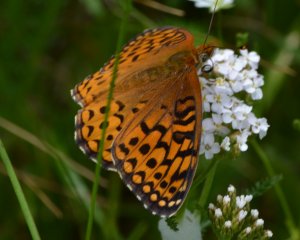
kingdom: Animalia
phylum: Arthropoda
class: Insecta
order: Lepidoptera
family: Nymphalidae
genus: Speyeria
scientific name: Speyeria atlantis
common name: Atlantis Fritillary
